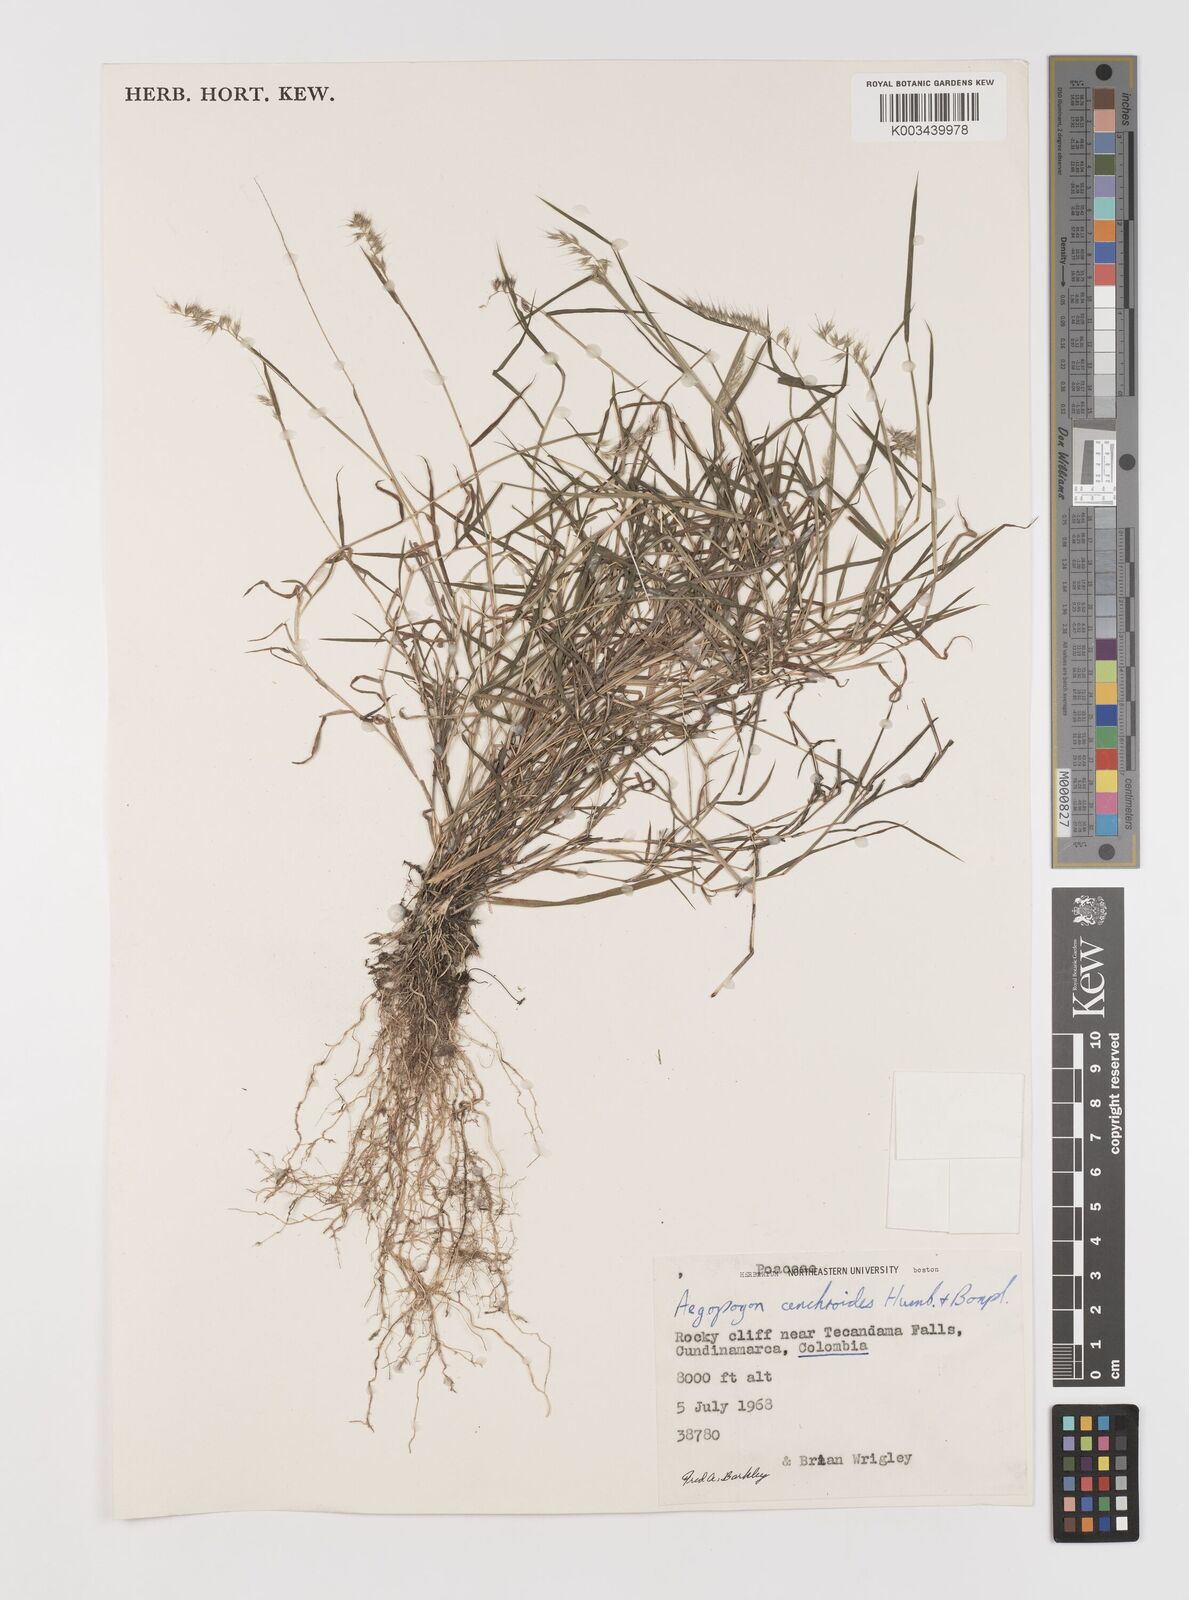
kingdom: Plantae
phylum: Tracheophyta
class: Liliopsida
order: Poales
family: Poaceae
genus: Muhlenbergia
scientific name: Muhlenbergia cenchroides
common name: Relaxgrass
